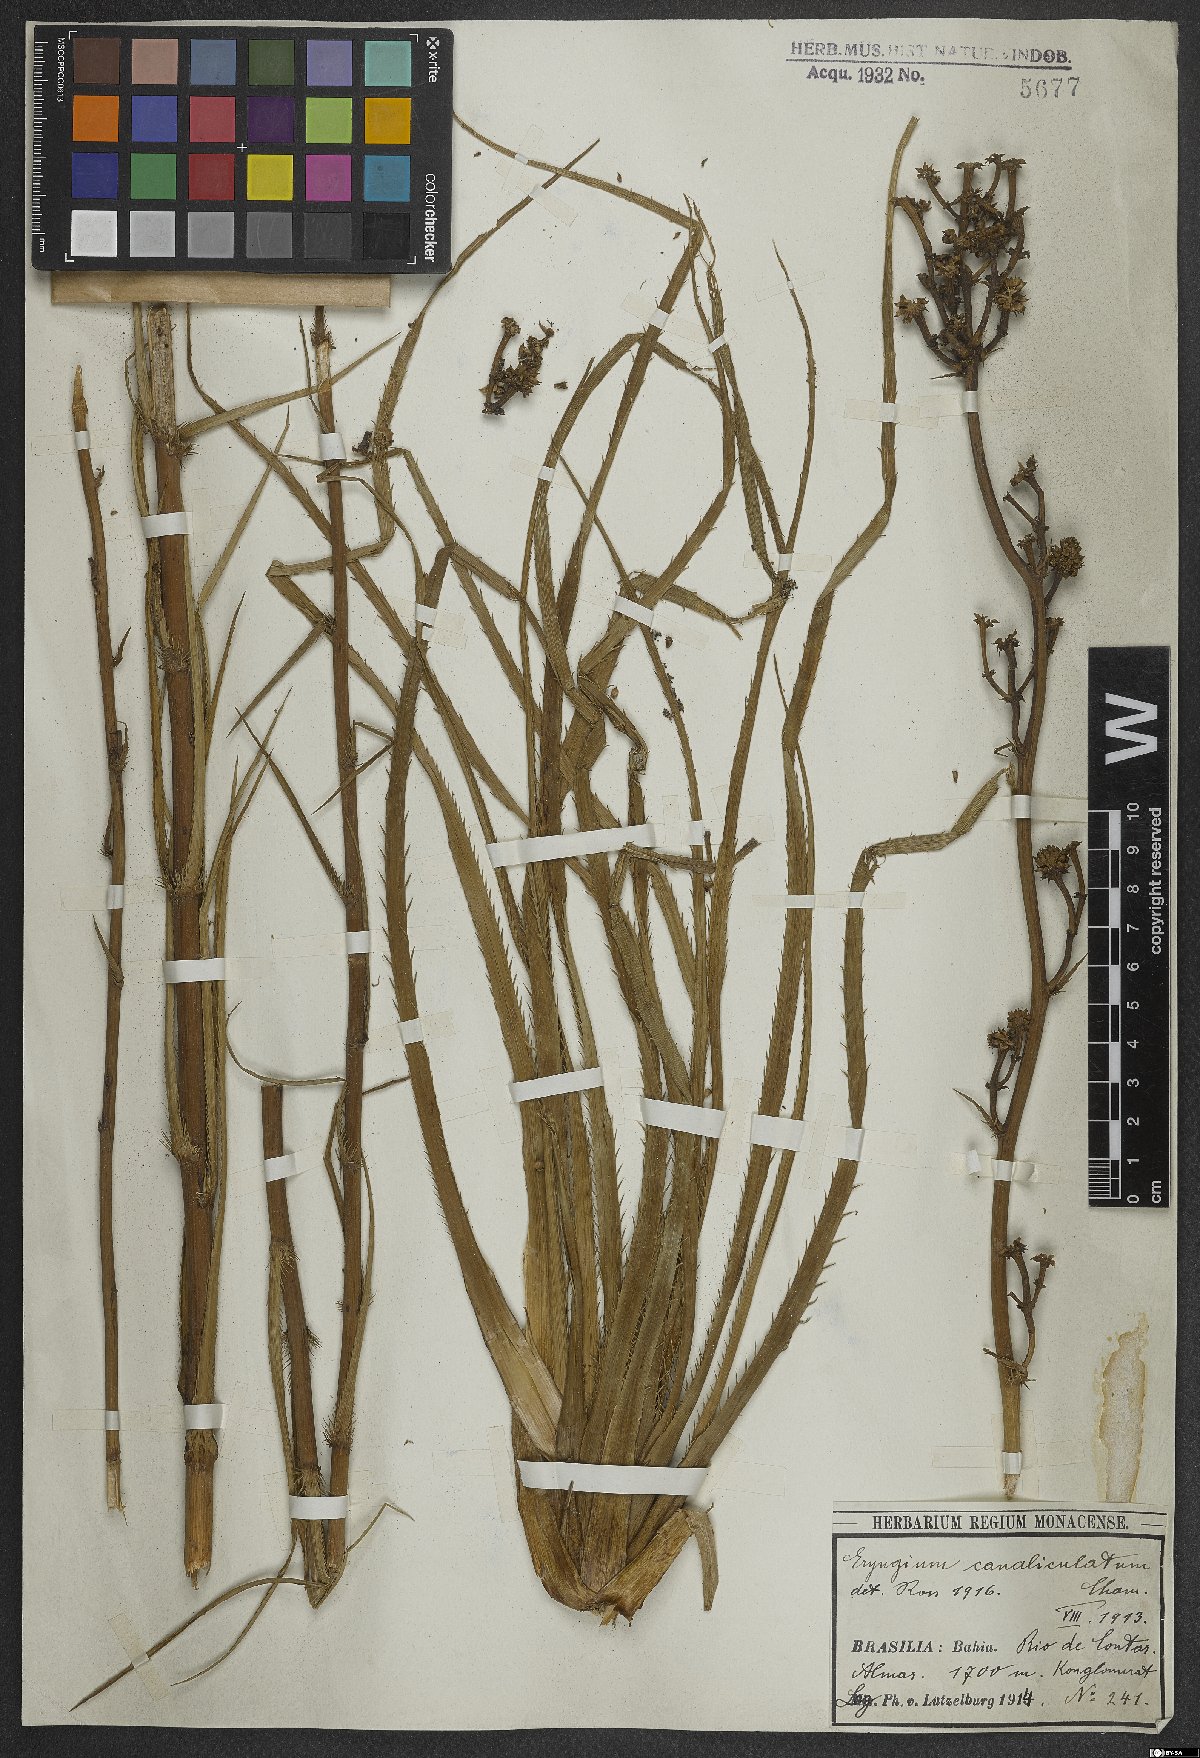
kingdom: Plantae
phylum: Tracheophyta
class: Magnoliopsida
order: Apiales
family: Apiaceae
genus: Eryngium
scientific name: Eryngium canaliculatum
